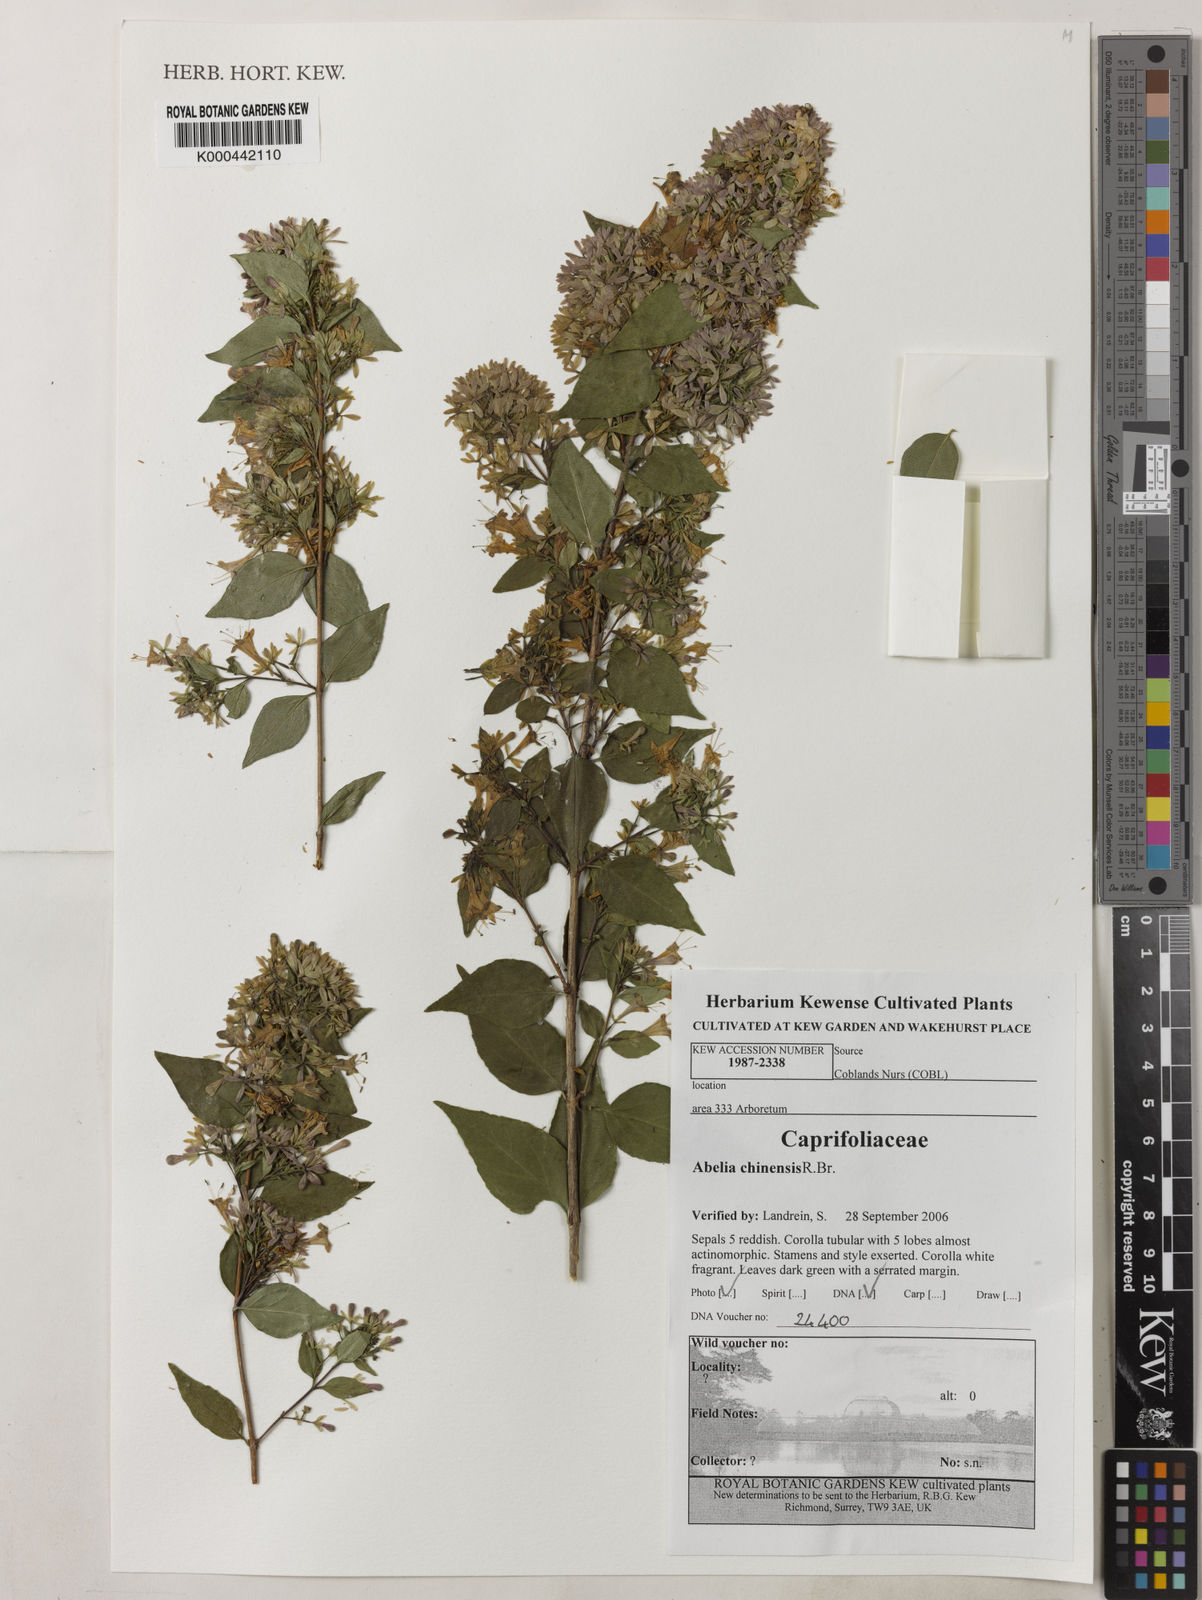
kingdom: Plantae
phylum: Tracheophyta
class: Magnoliopsida
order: Dipsacales
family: Caprifoliaceae
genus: Abelia
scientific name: Abelia chinensis
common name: Chinese abelia
